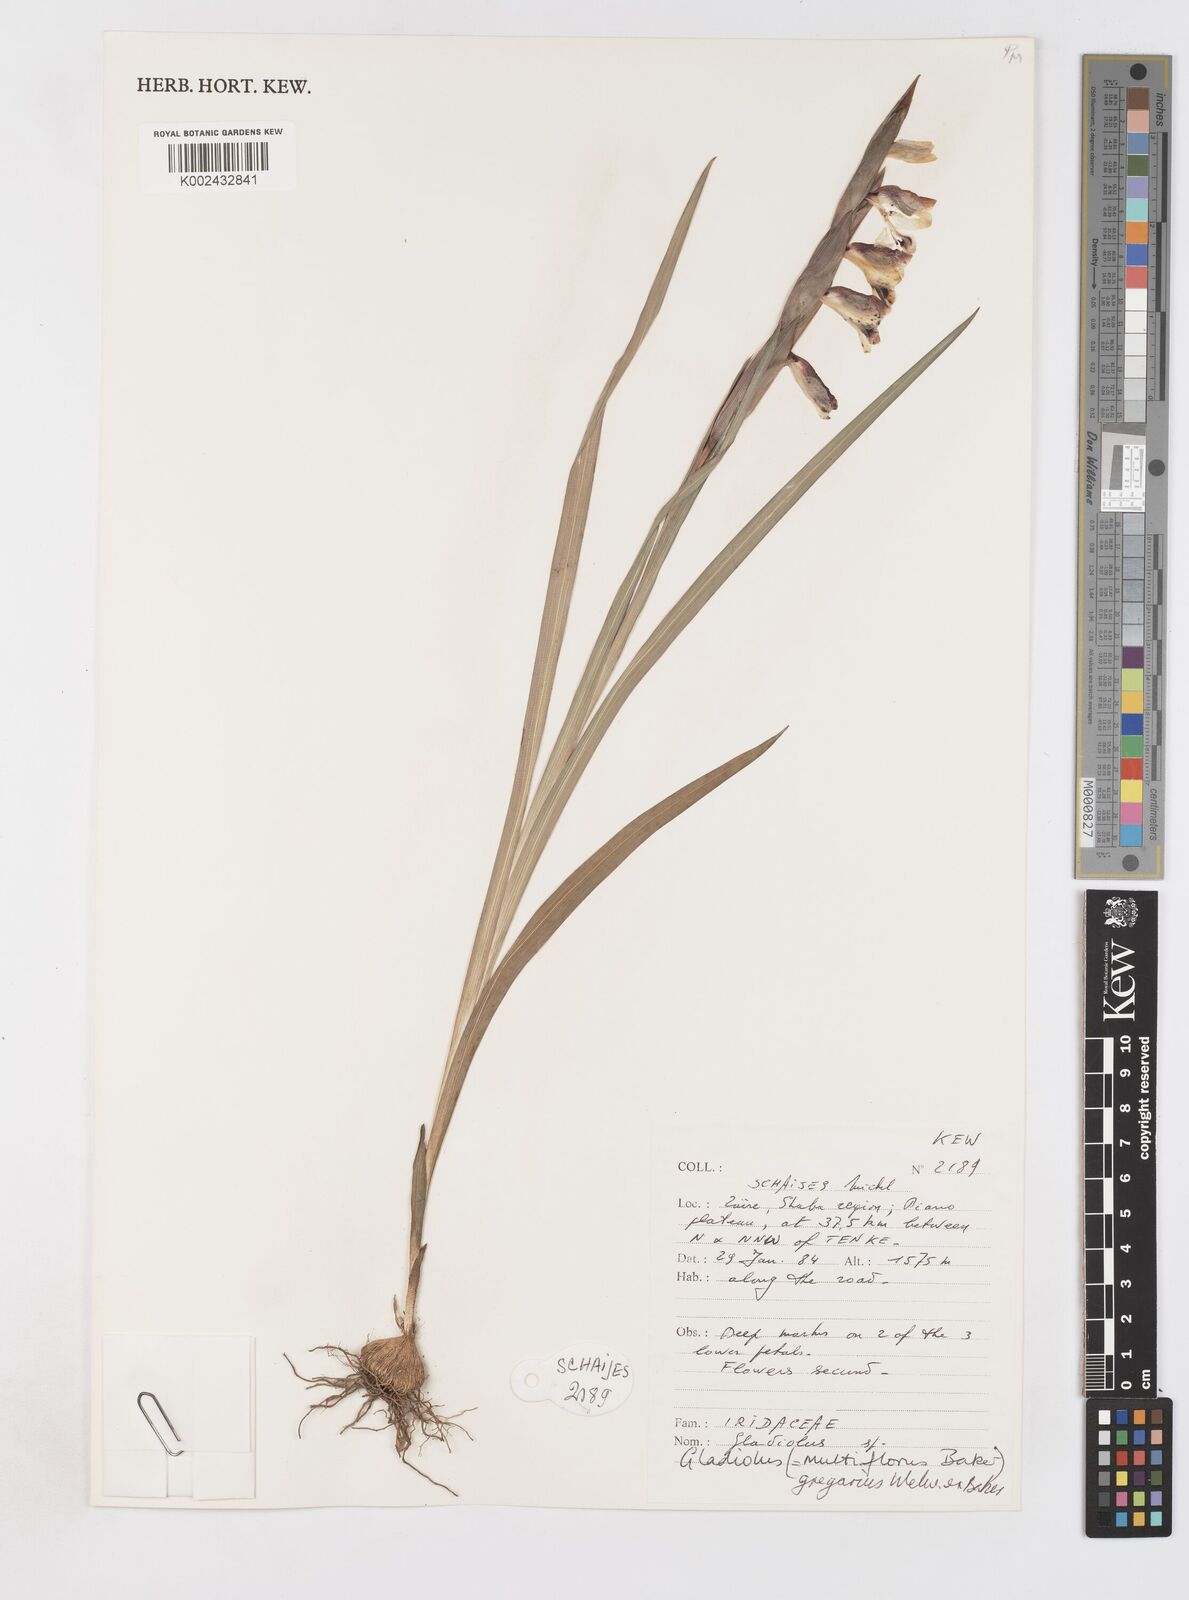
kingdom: Plantae
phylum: Tracheophyta
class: Liliopsida
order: Asparagales
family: Iridaceae
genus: Gladiolus
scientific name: Gladiolus gregarius
